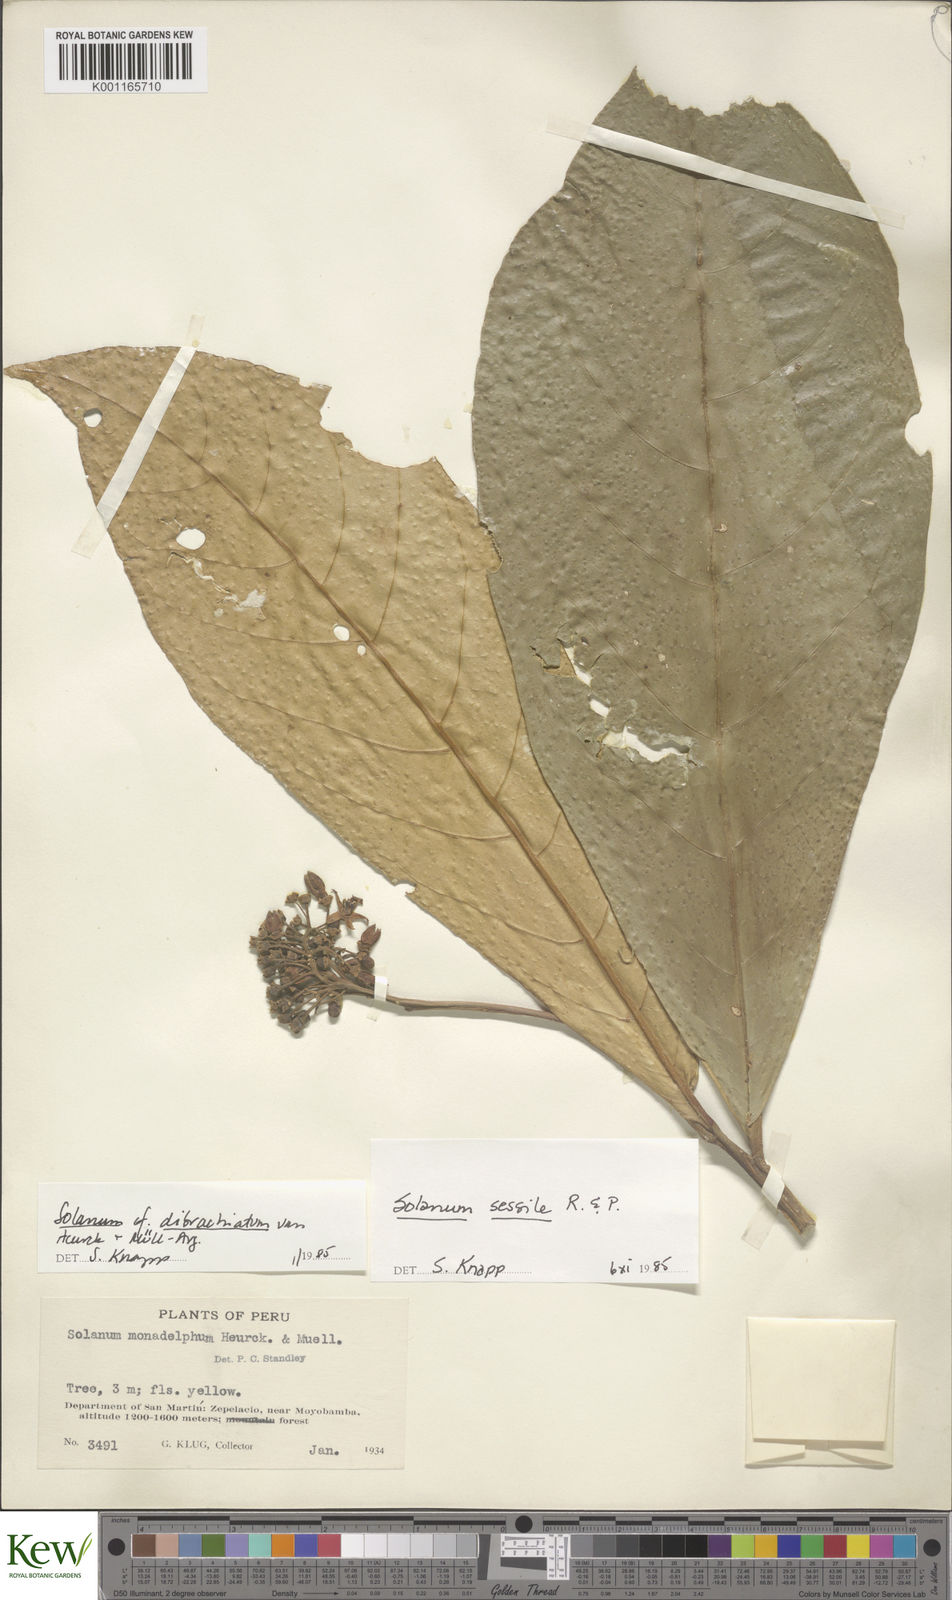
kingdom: Plantae
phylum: Tracheophyta
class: Magnoliopsida
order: Solanales
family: Solanaceae
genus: Solanum
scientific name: Solanum sessile
